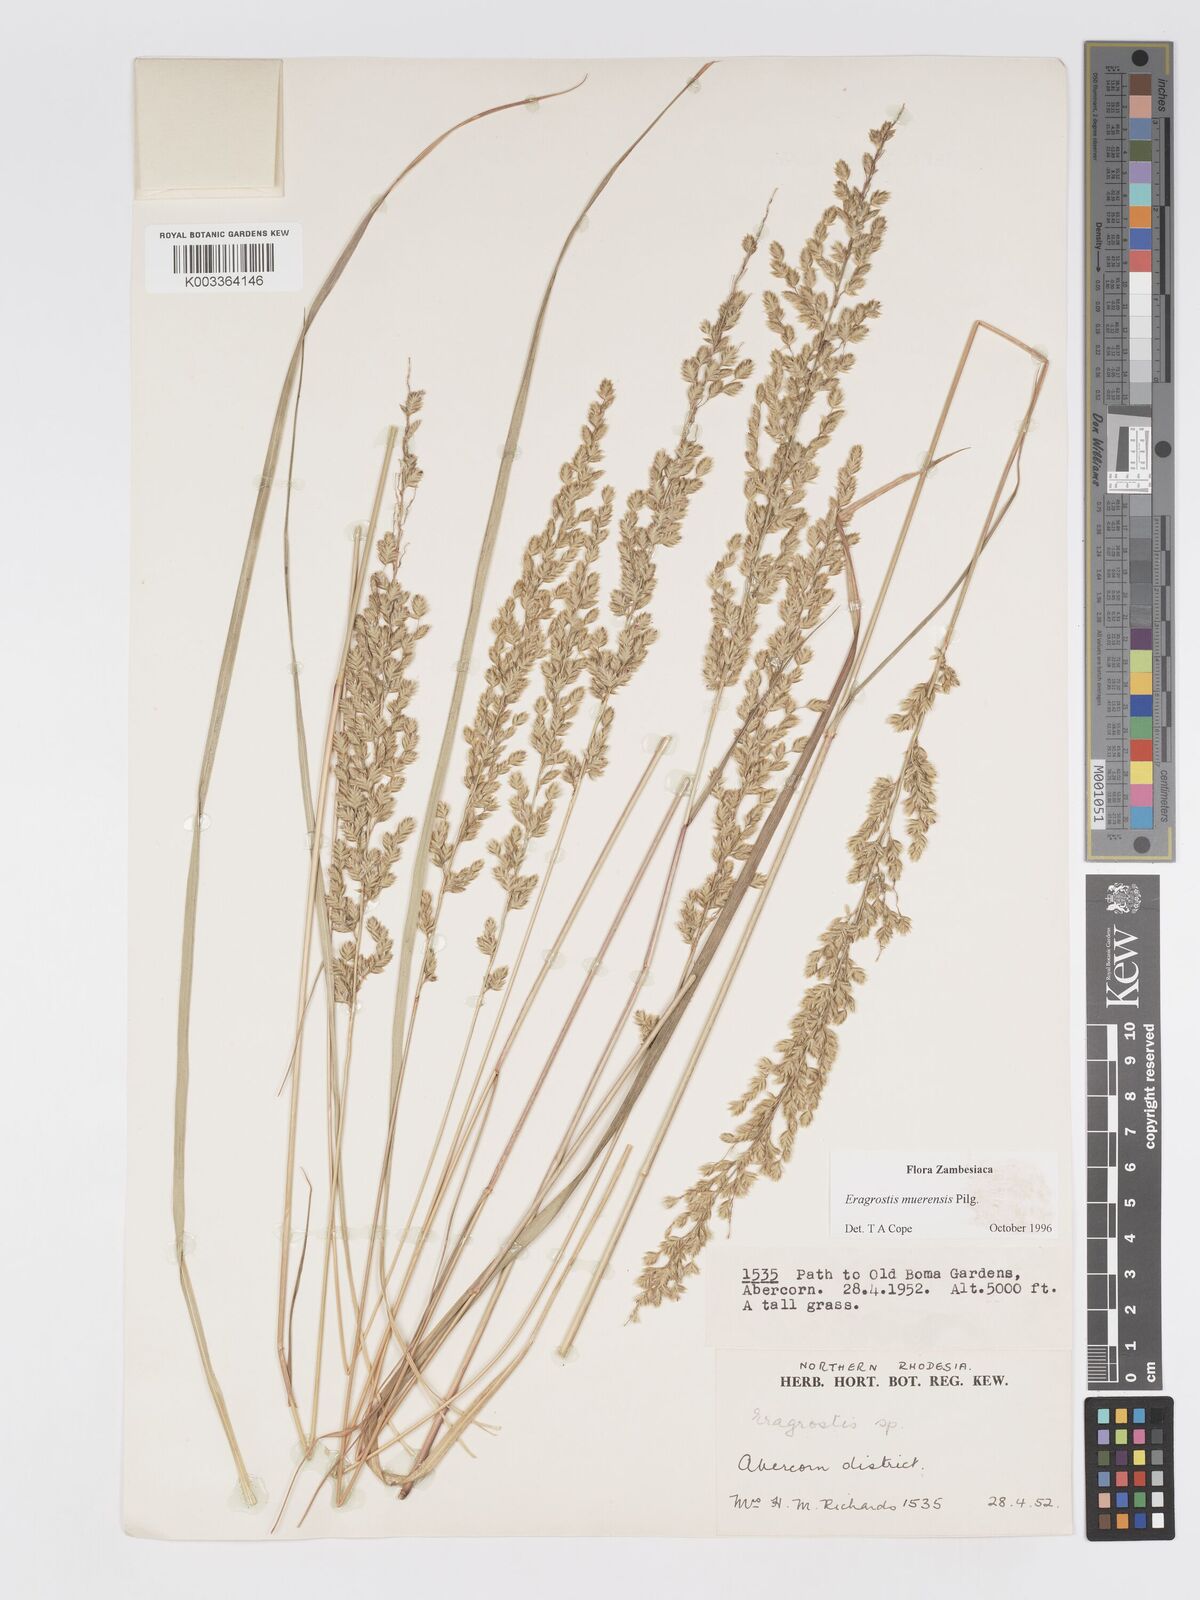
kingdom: Plantae
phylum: Tracheophyta
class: Liliopsida
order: Poales
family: Poaceae
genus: Eragrostis
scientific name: Eragrostis muerensis
